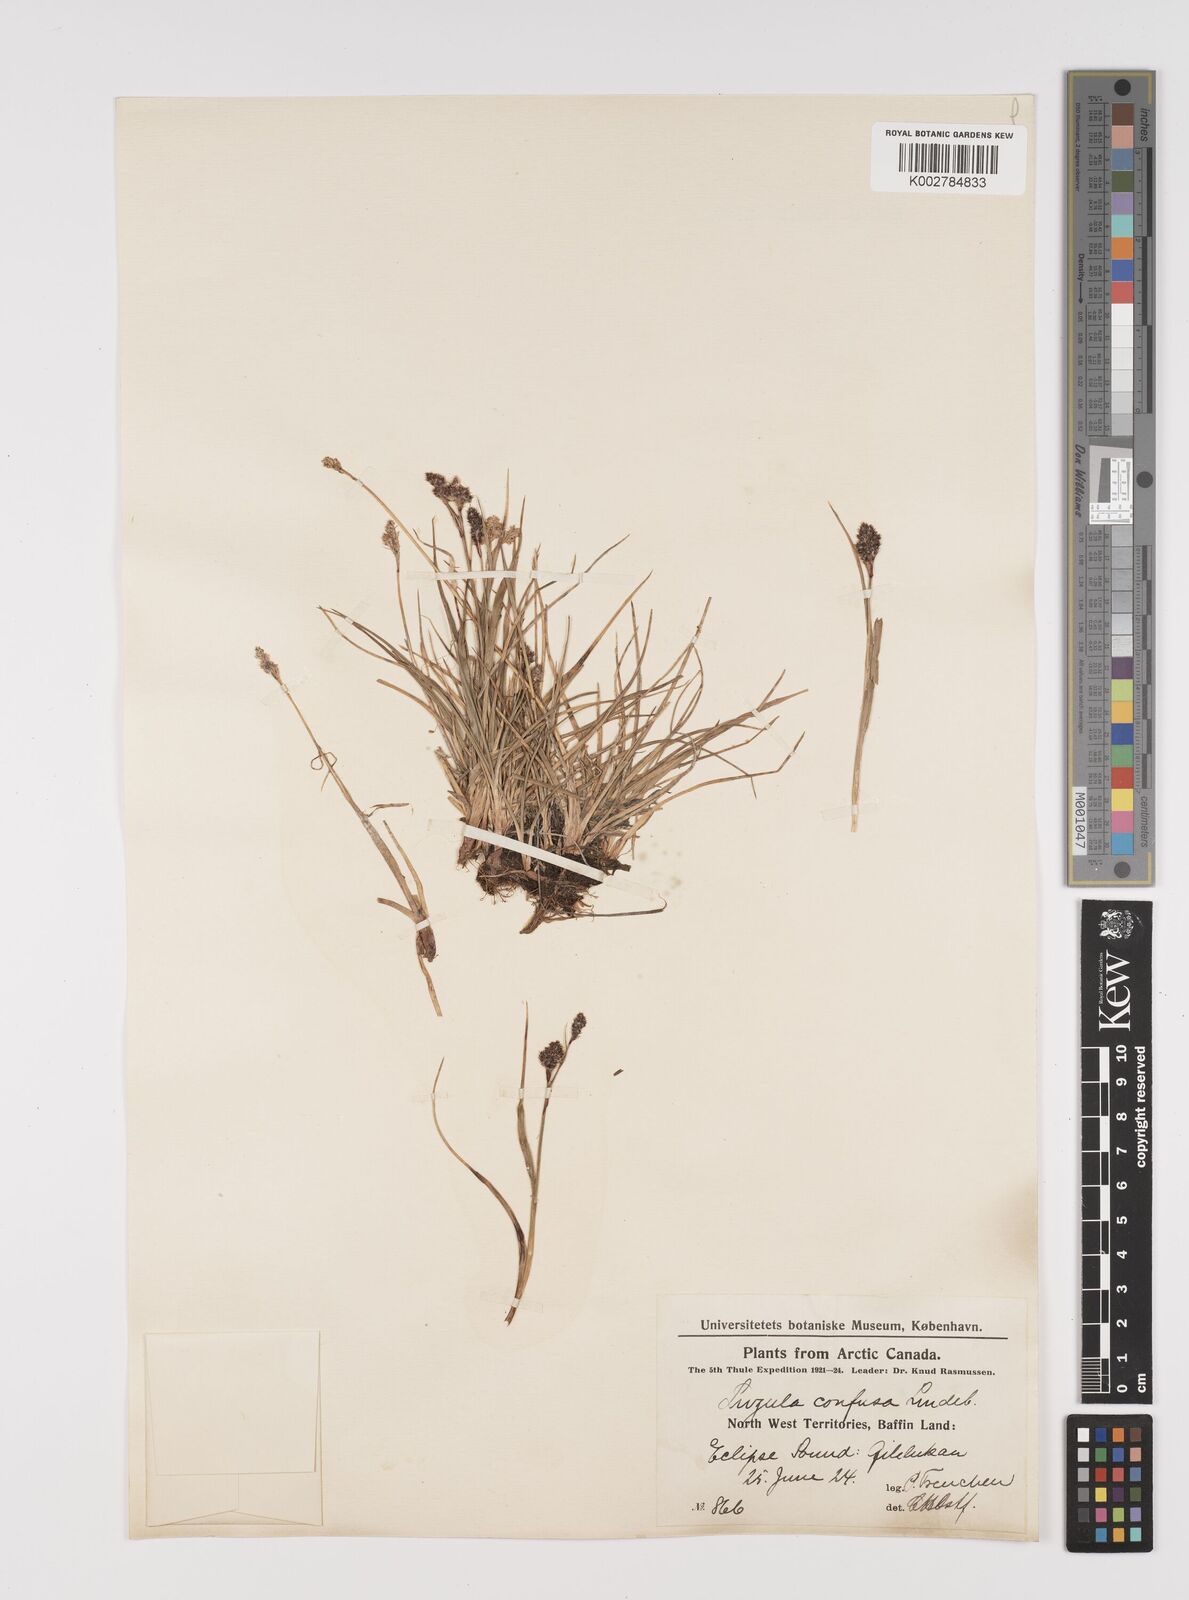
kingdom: Plantae
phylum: Tracheophyta
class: Liliopsida
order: Poales
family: Juncaceae
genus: Luzula
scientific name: Luzula confusa
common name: Northern wood rush
